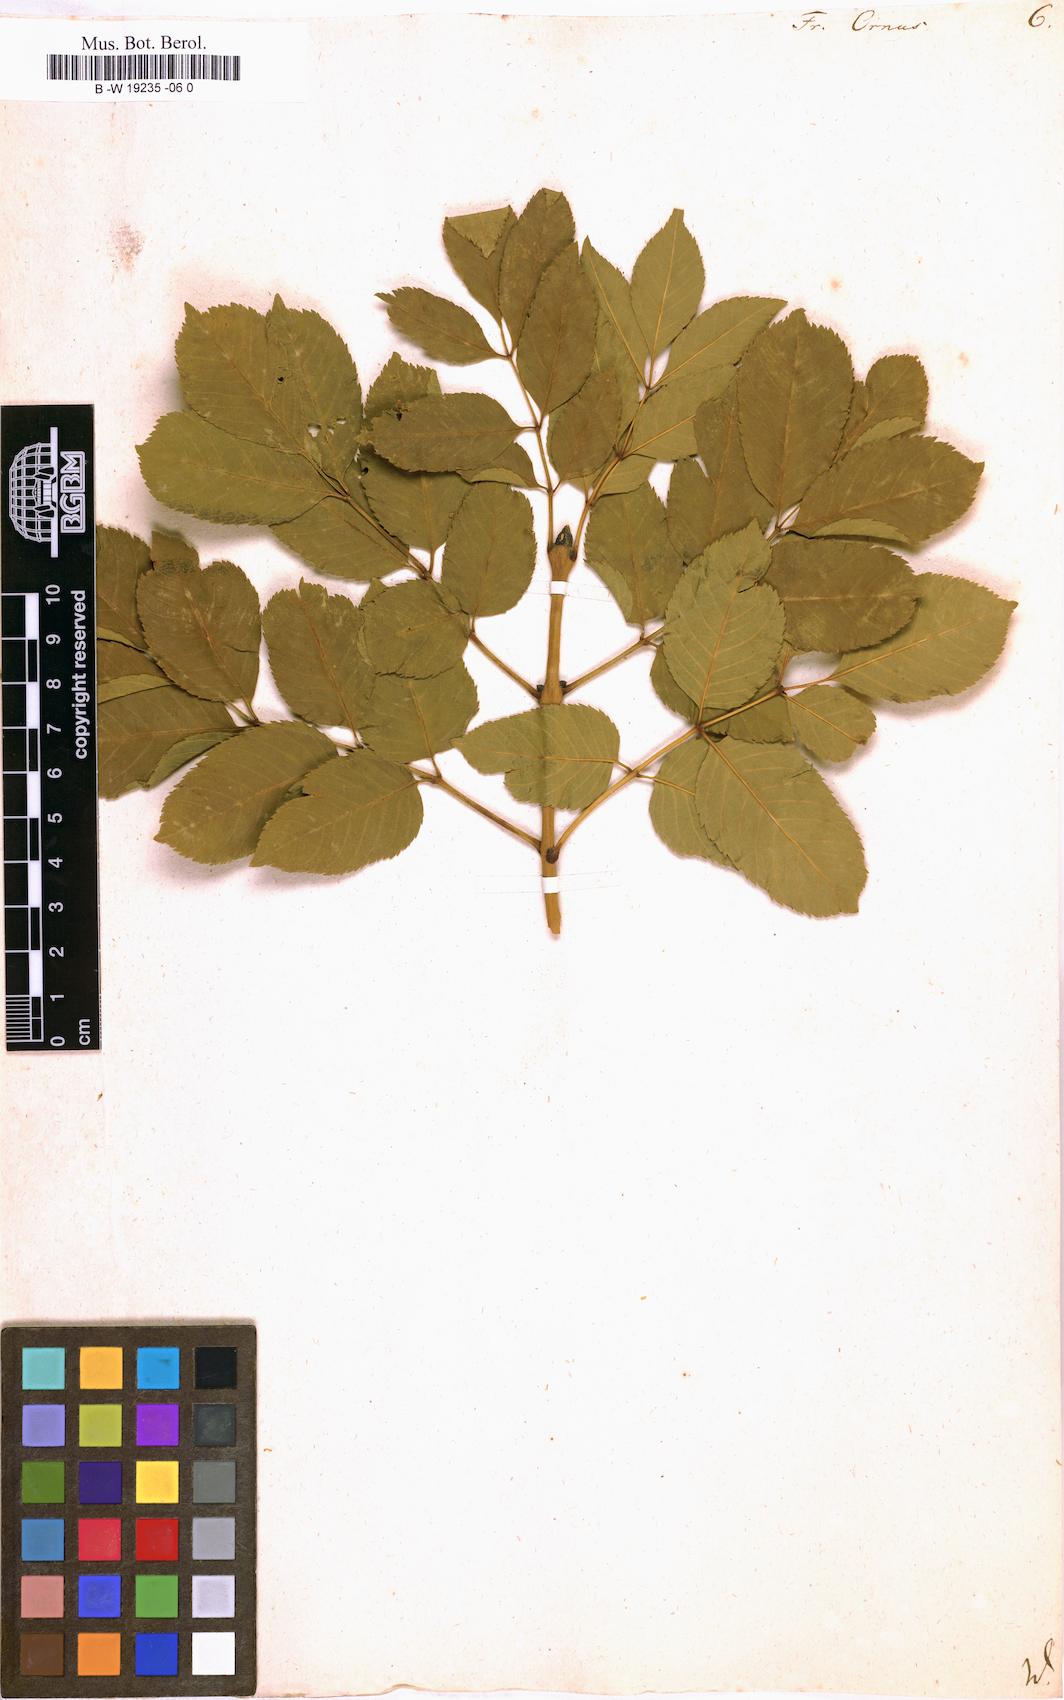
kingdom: Plantae
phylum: Tracheophyta
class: Magnoliopsida
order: Lamiales
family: Oleaceae
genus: Fraxinus
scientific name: Fraxinus ornus
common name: Manna ash
